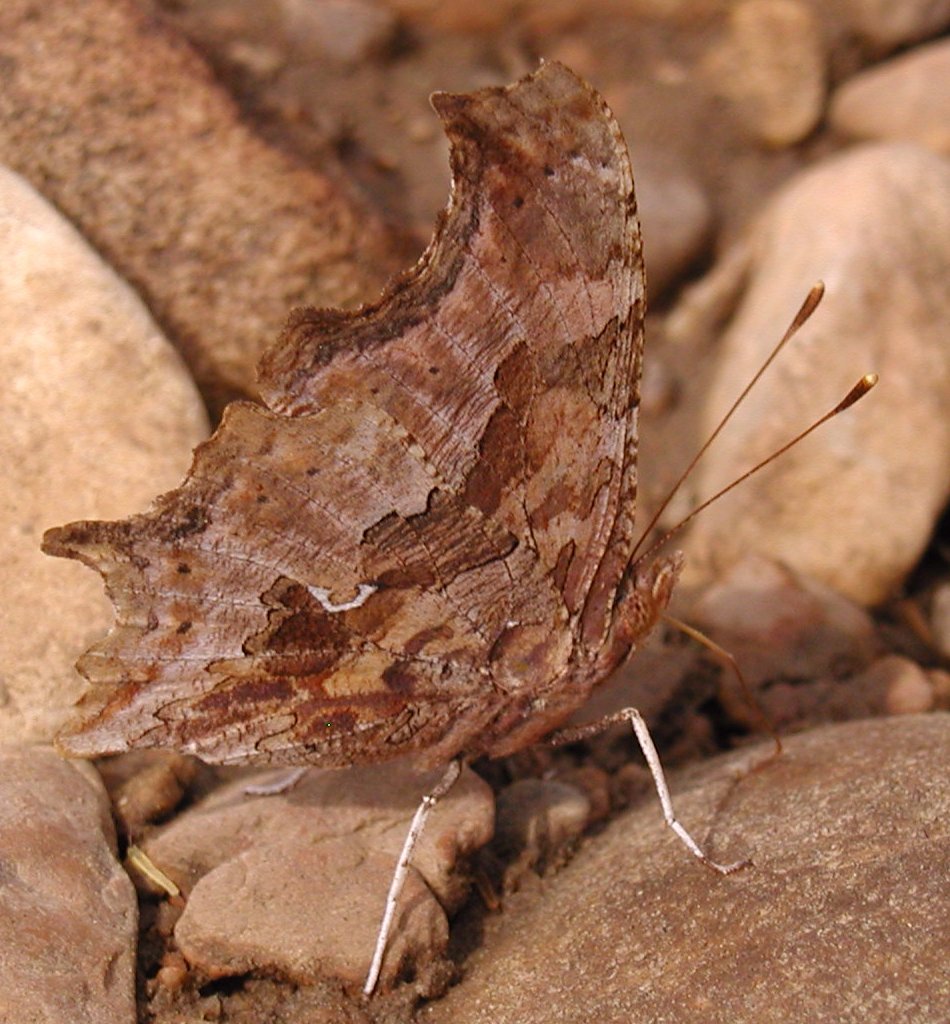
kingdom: Animalia
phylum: Arthropoda
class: Insecta
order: Lepidoptera
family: Nymphalidae
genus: Polygonia
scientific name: Polygonia comma
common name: Eastern Comma
